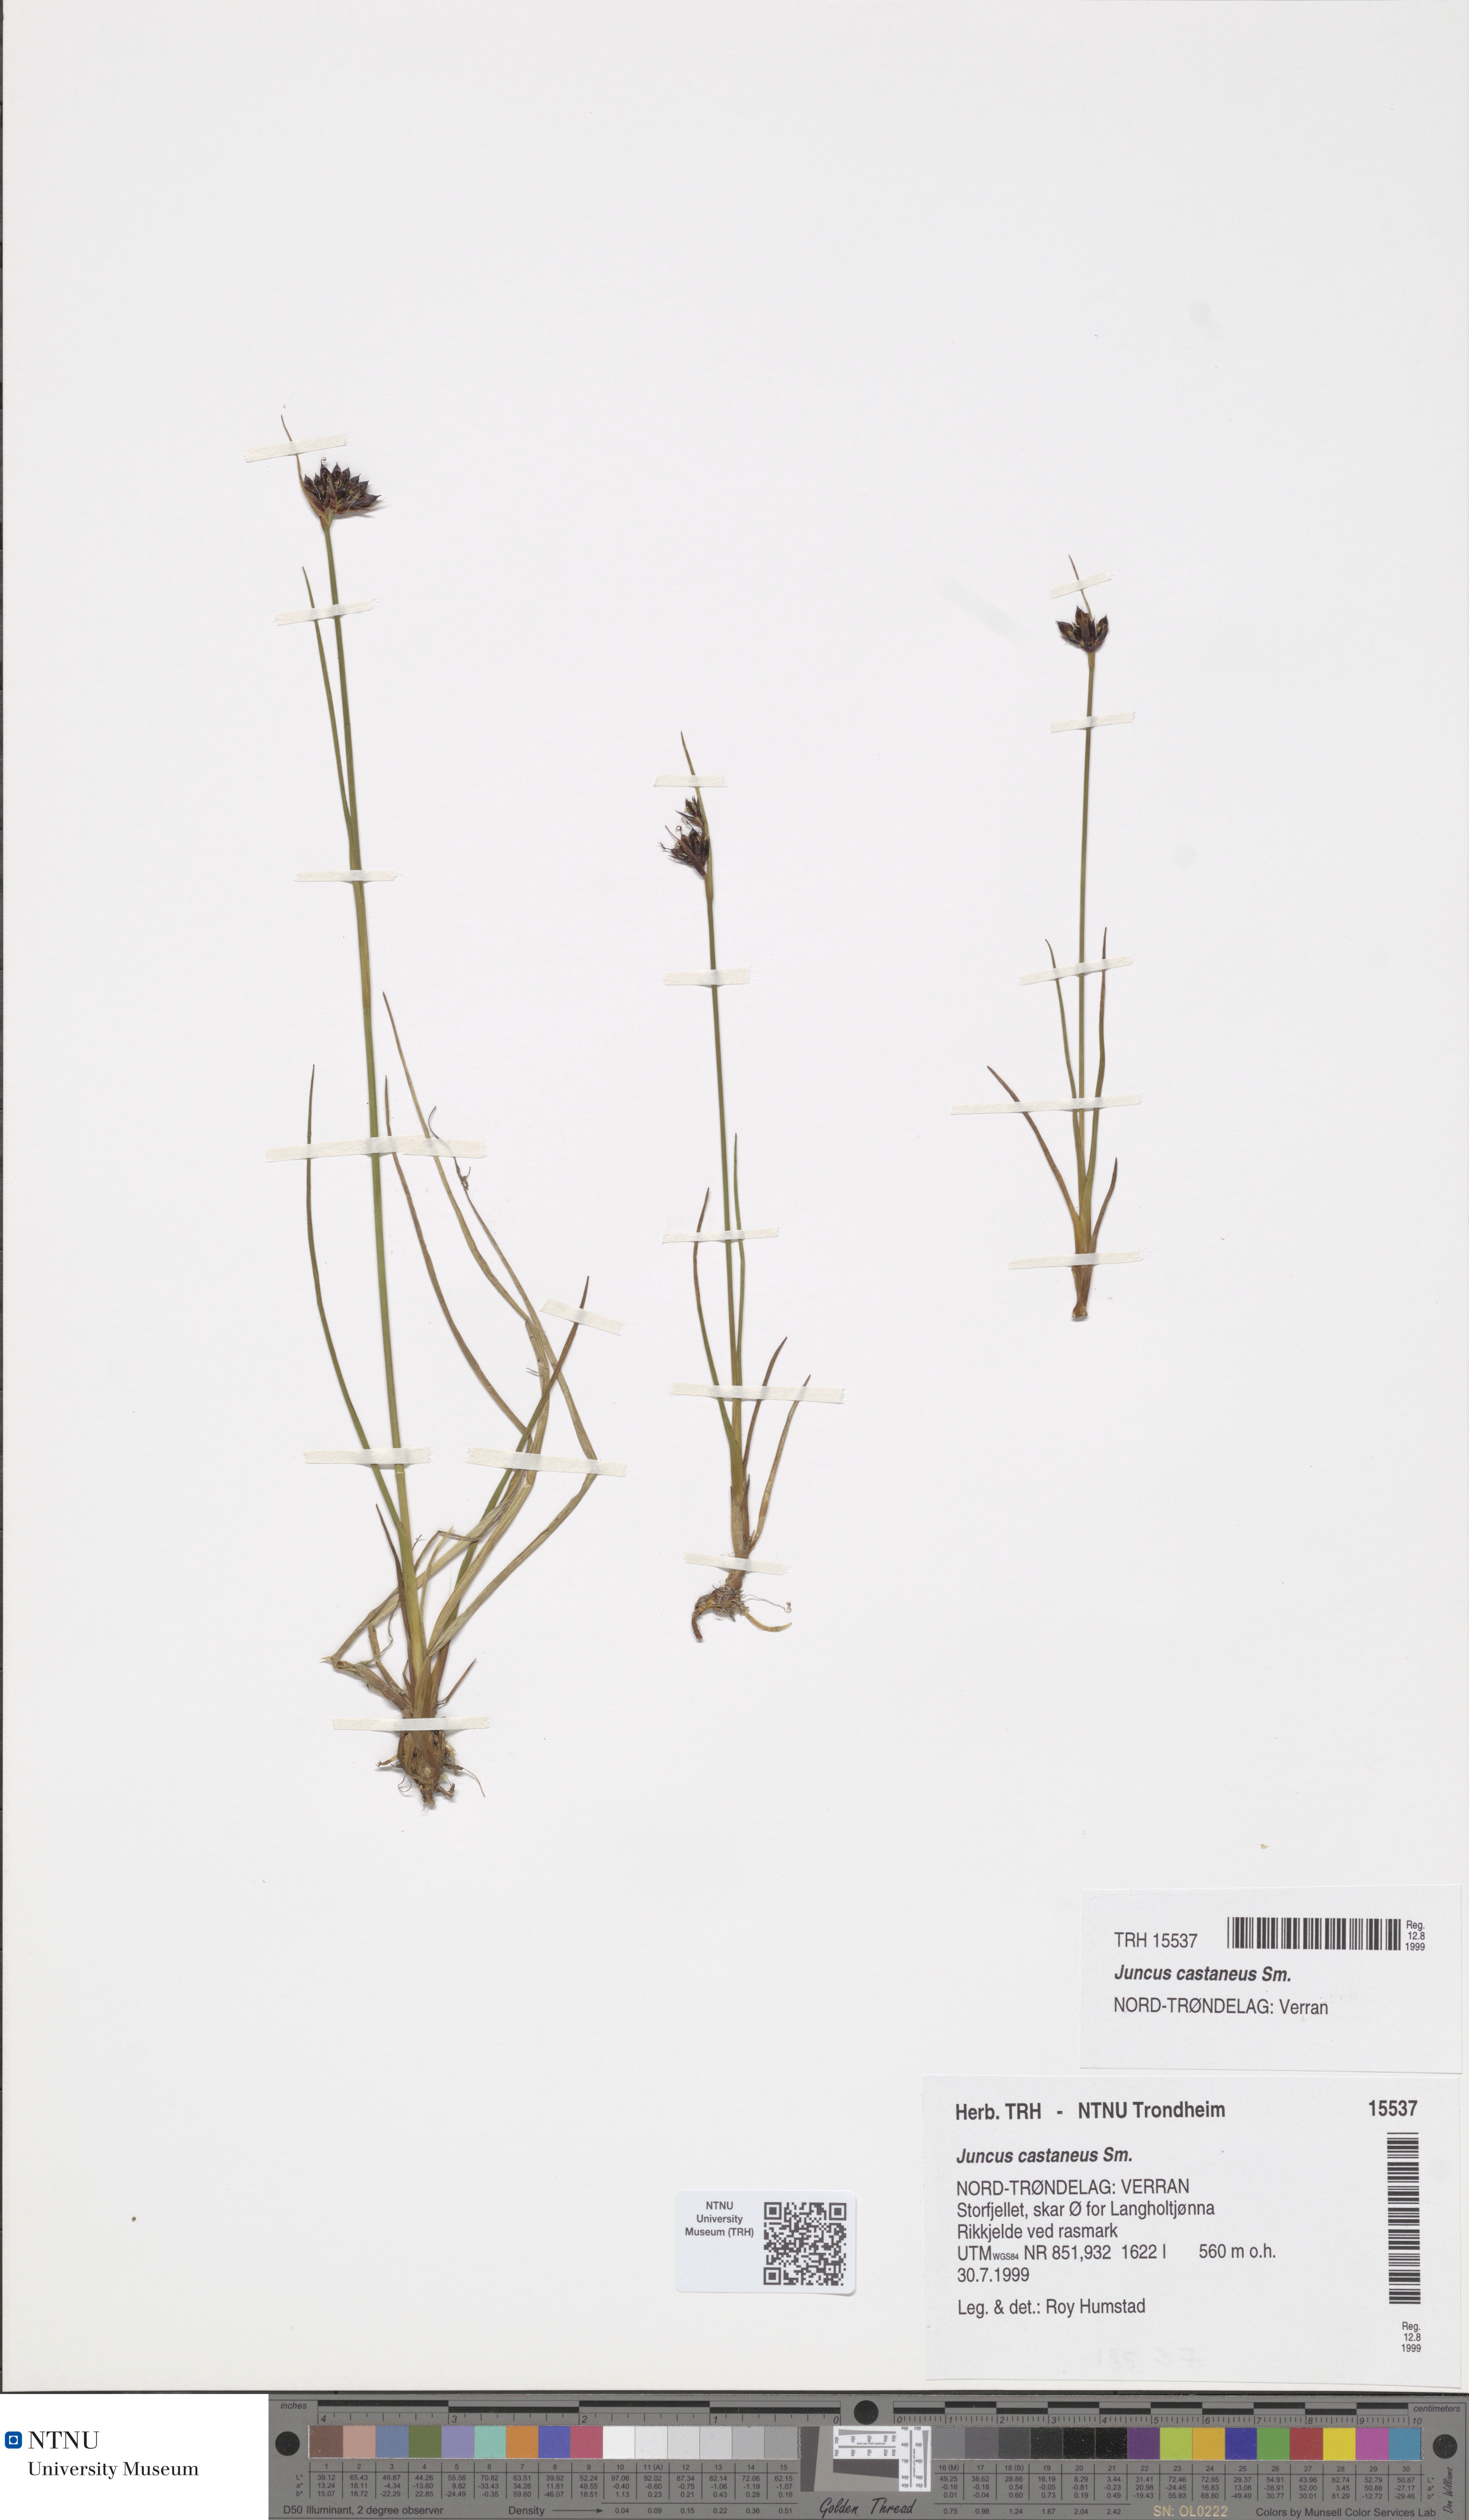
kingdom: Plantae
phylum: Tracheophyta
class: Liliopsida
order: Poales
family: Juncaceae
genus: Juncus
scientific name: Juncus castaneus
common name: Chestnut rush
